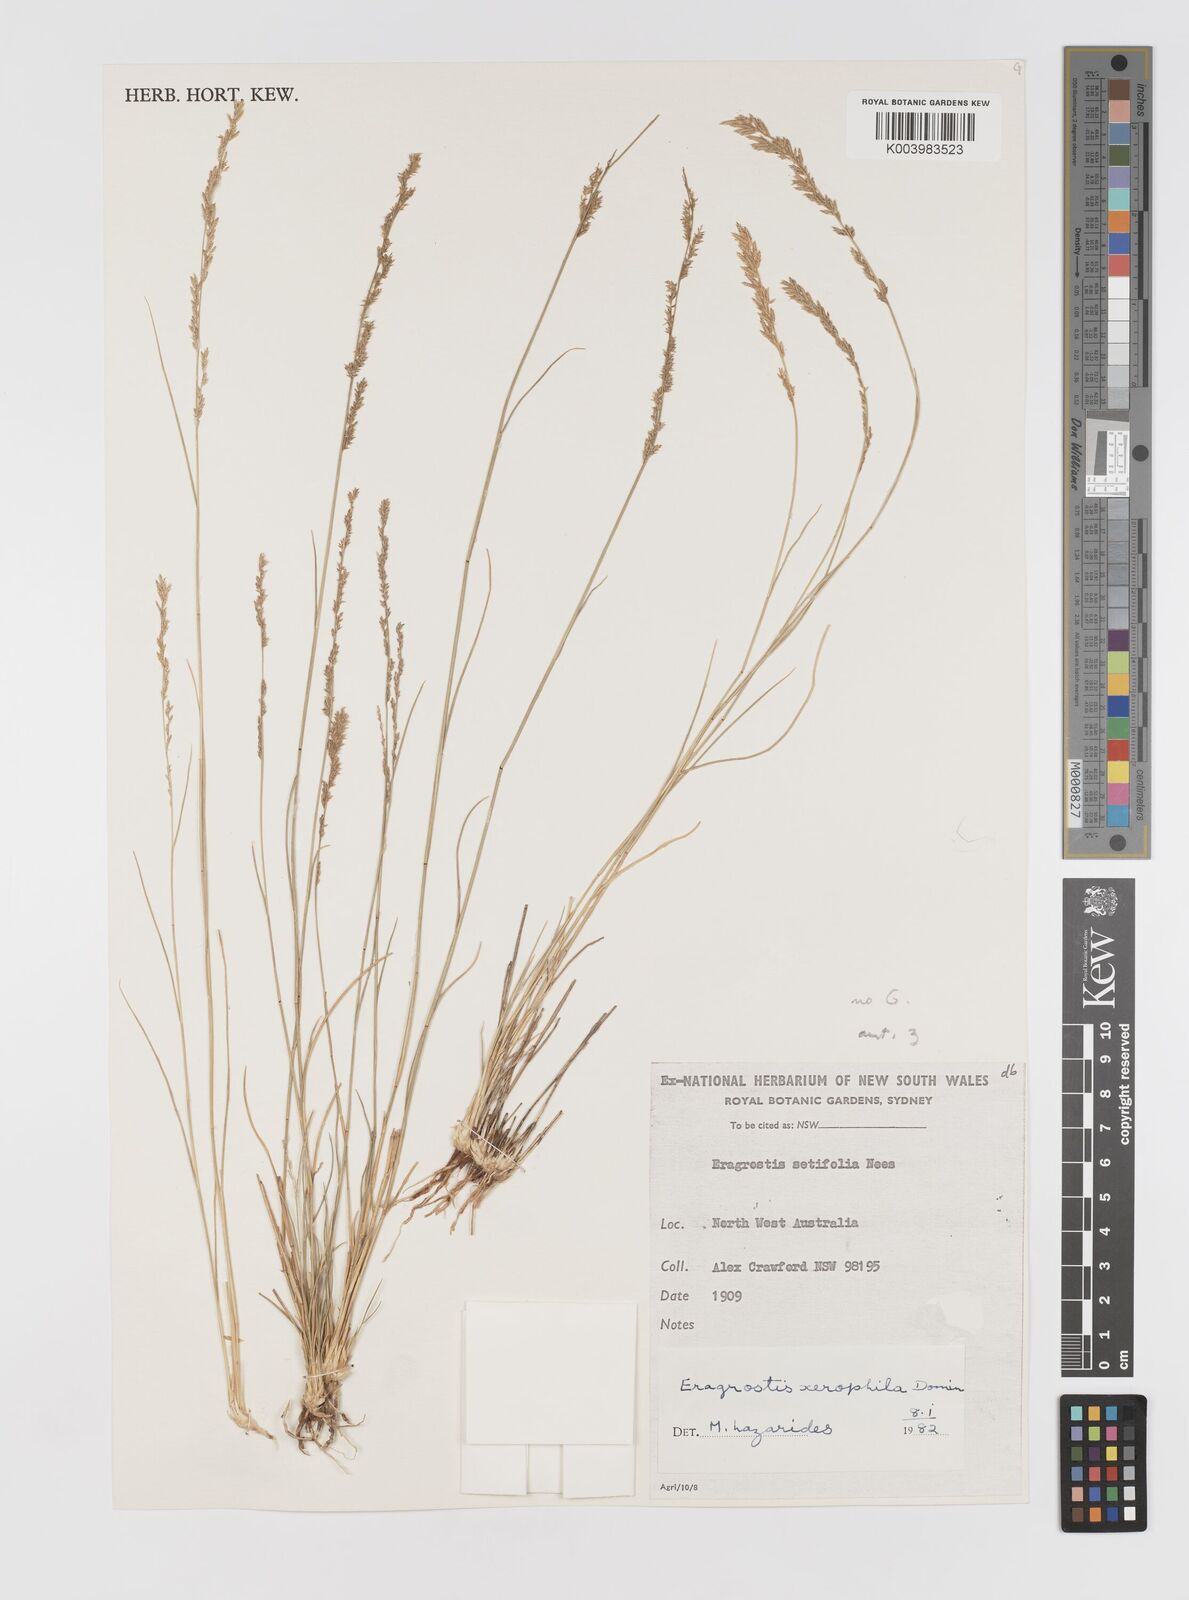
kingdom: Plantae
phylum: Tracheophyta
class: Liliopsida
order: Poales
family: Poaceae
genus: Eragrostis
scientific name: Eragrostis xerophila
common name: Wire wandarrie grass
